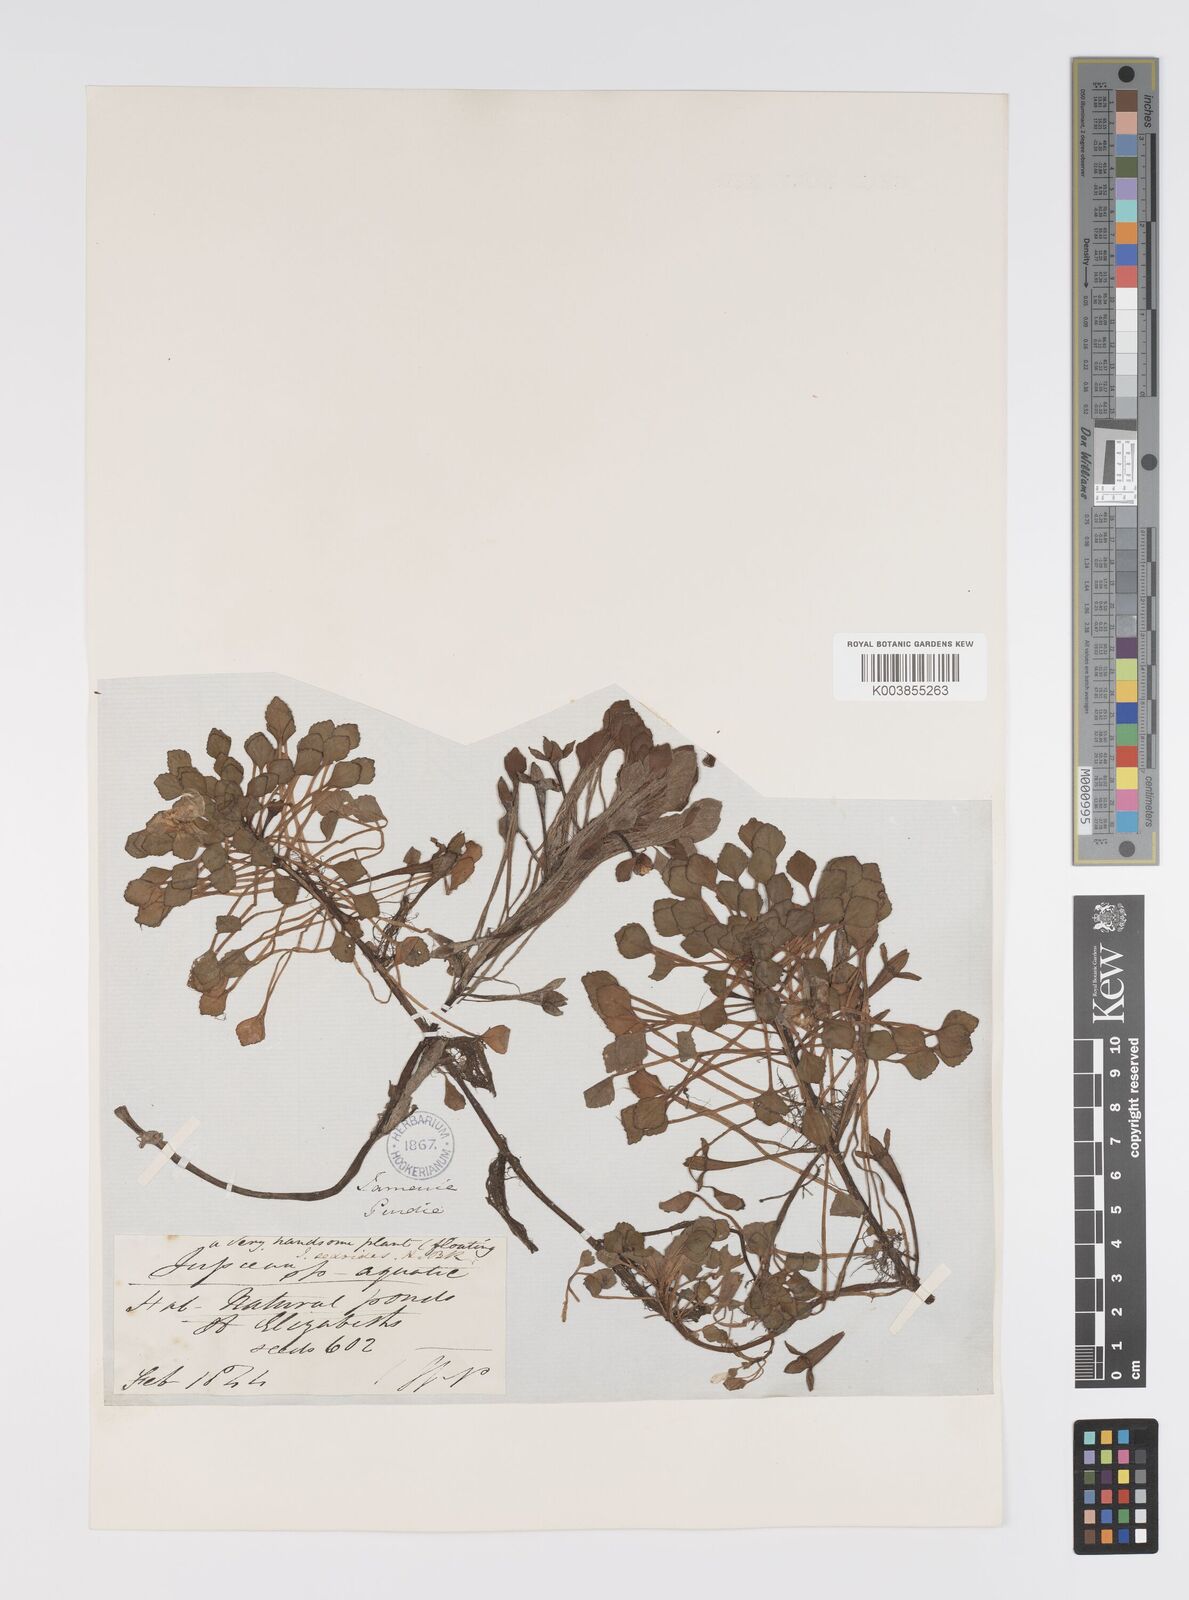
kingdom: Plantae
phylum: Tracheophyta
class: Magnoliopsida
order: Myrtales
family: Onagraceae
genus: Ludwigia
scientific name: Ludwigia sedoides
